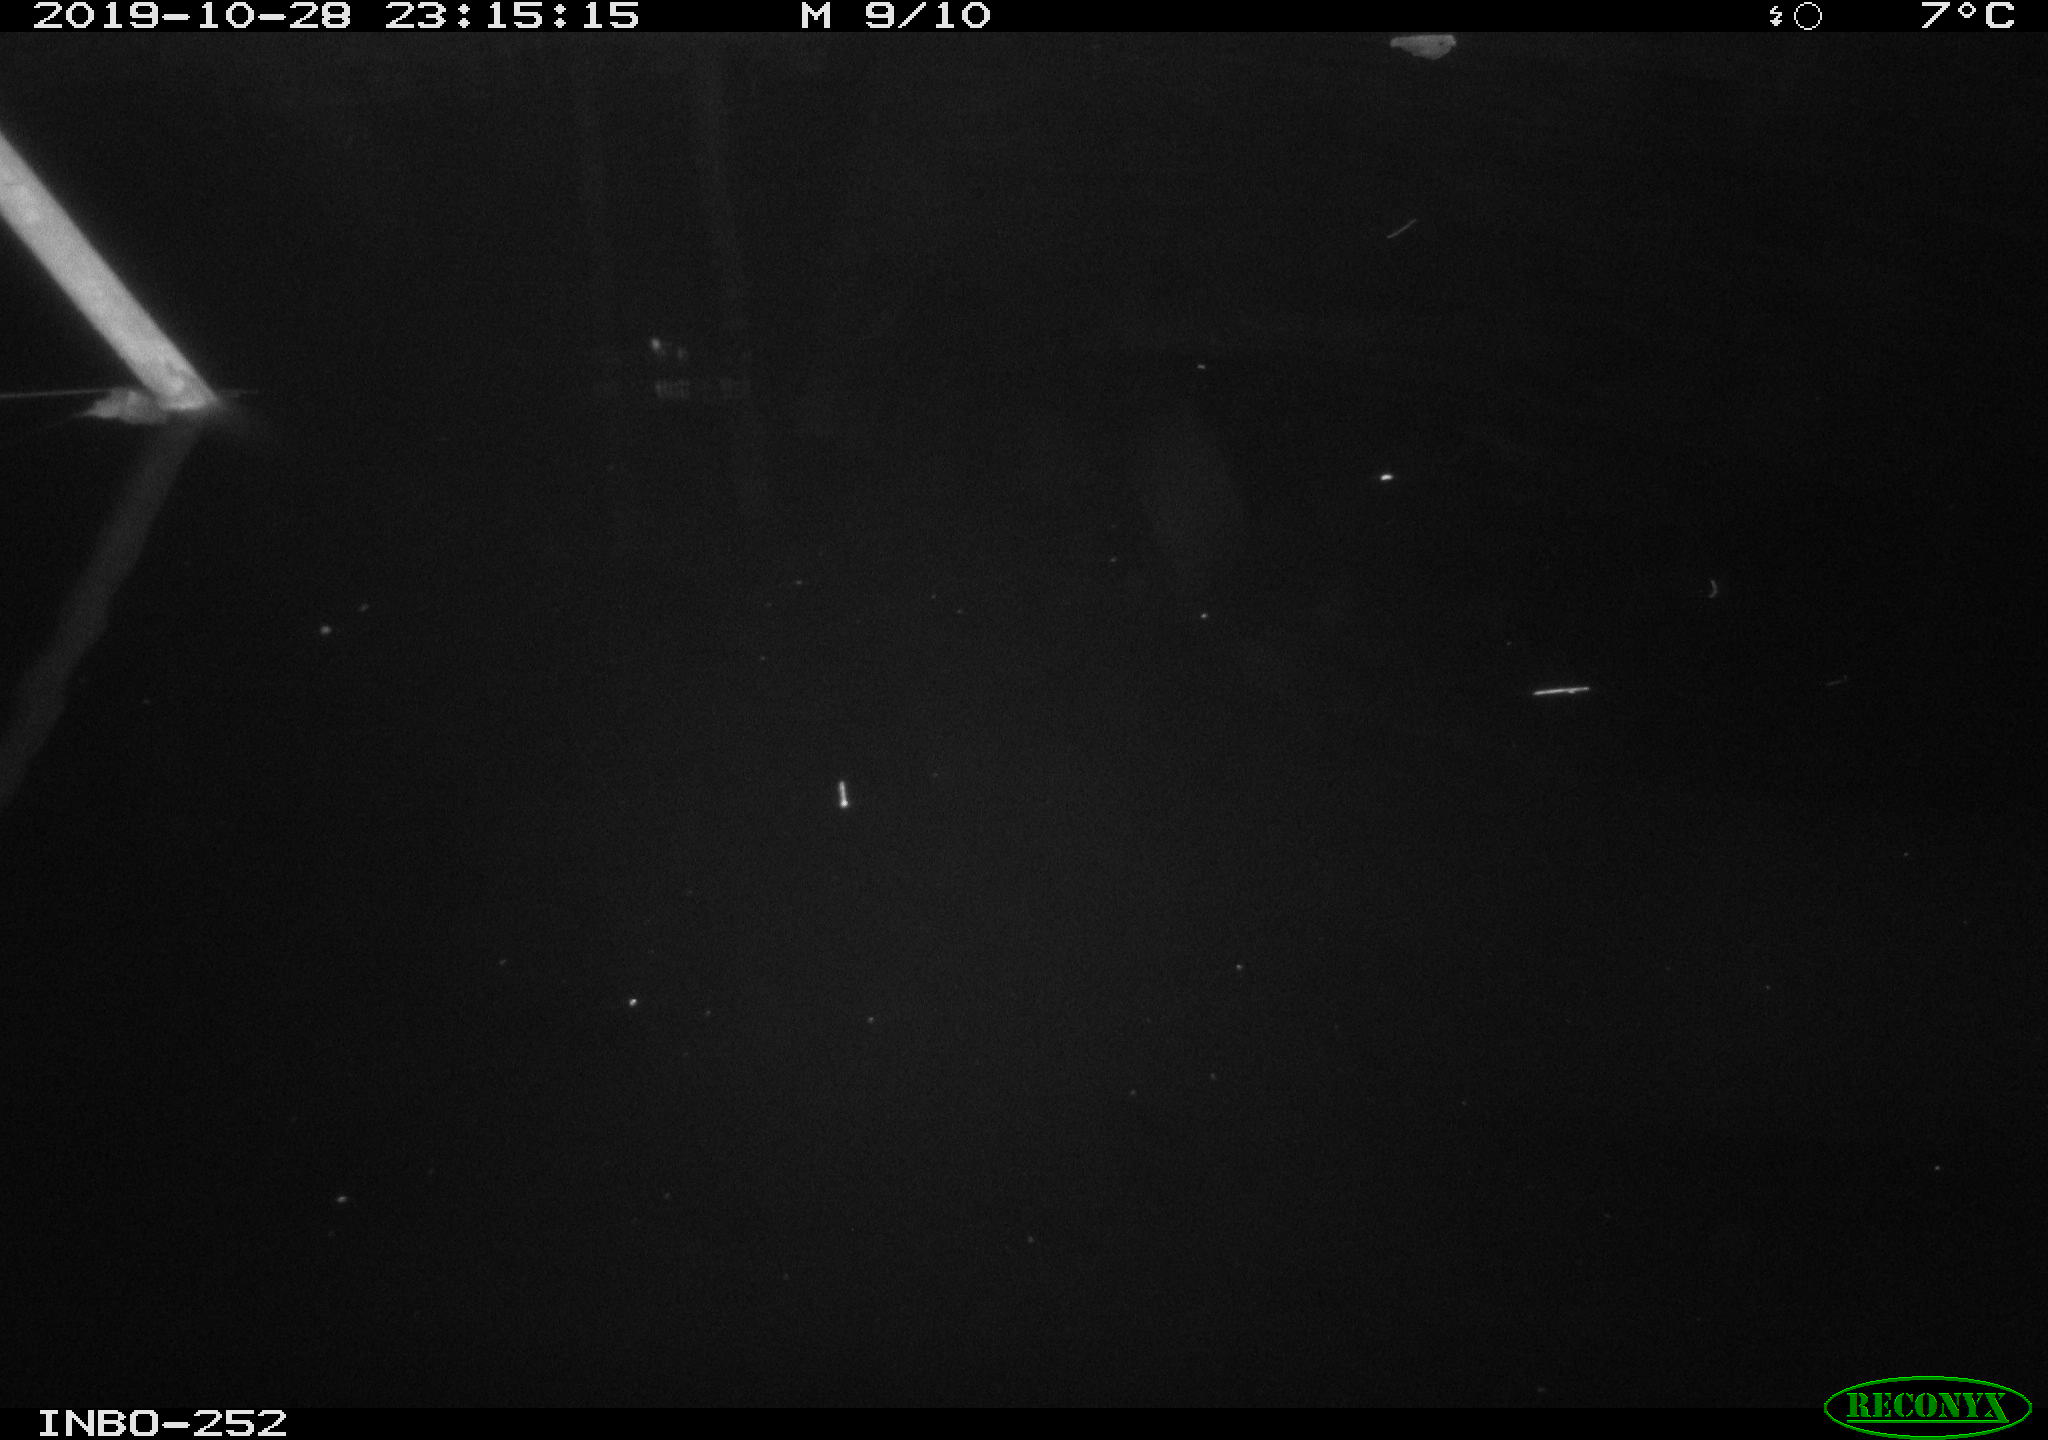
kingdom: Animalia
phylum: Chordata
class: Aves
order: Anseriformes
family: Anatidae
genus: Anas
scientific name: Anas platyrhynchos
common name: Mallard
